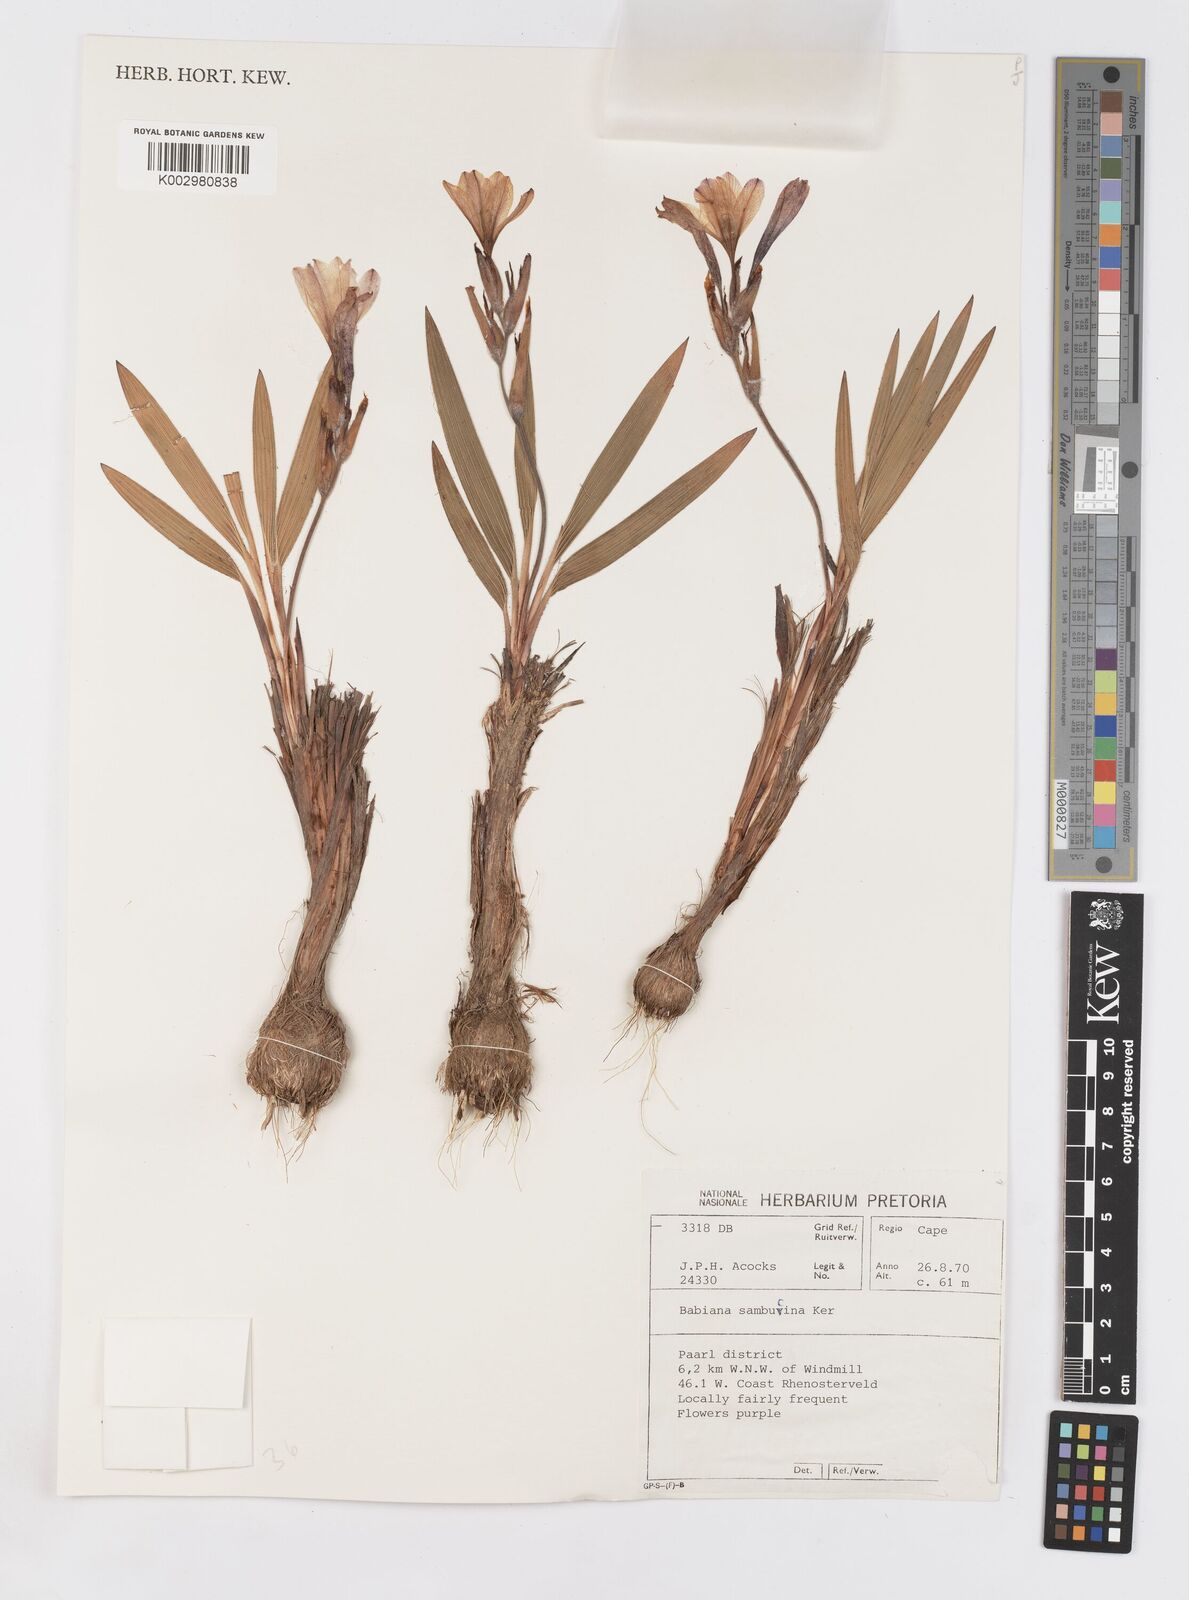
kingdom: Plantae
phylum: Tracheophyta
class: Liliopsida
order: Asparagales
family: Iridaceae
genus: Babiana
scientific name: Babiana sambucina
